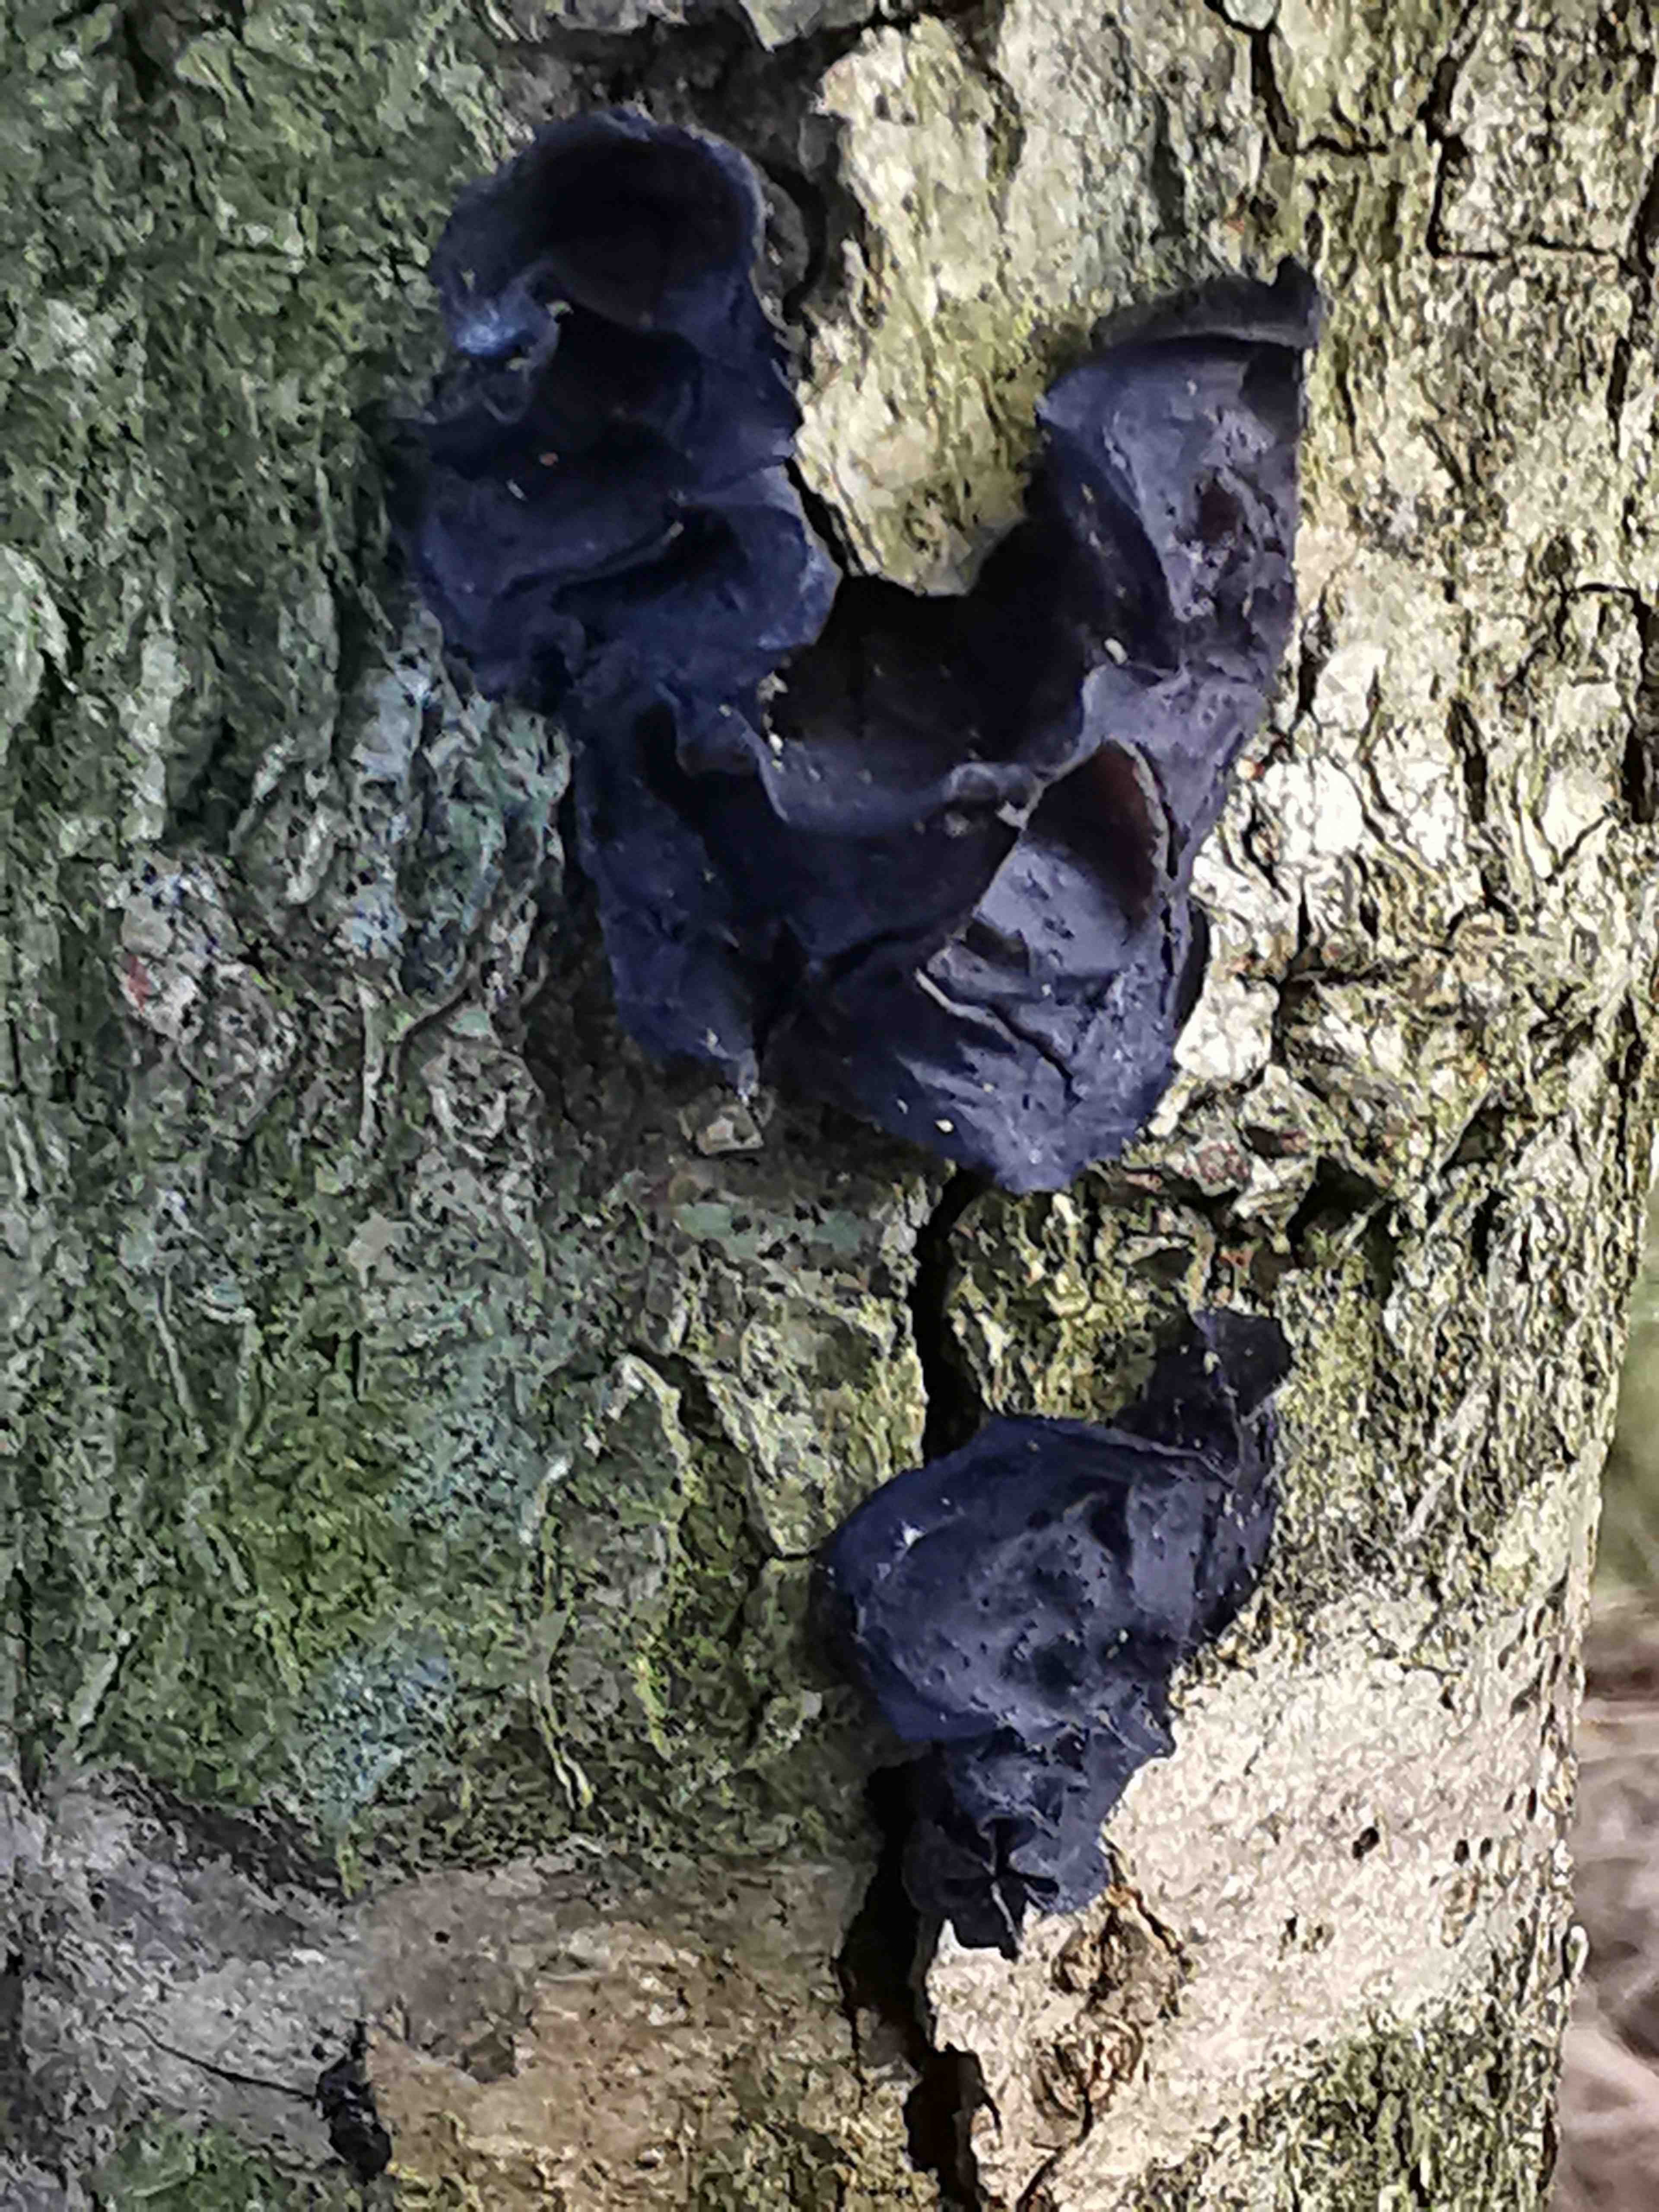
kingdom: Fungi
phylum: Basidiomycota
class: Agaricomycetes
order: Auriculariales
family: Auriculariaceae
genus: Exidia
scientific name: Exidia glandulosa
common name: ege-bævretop
